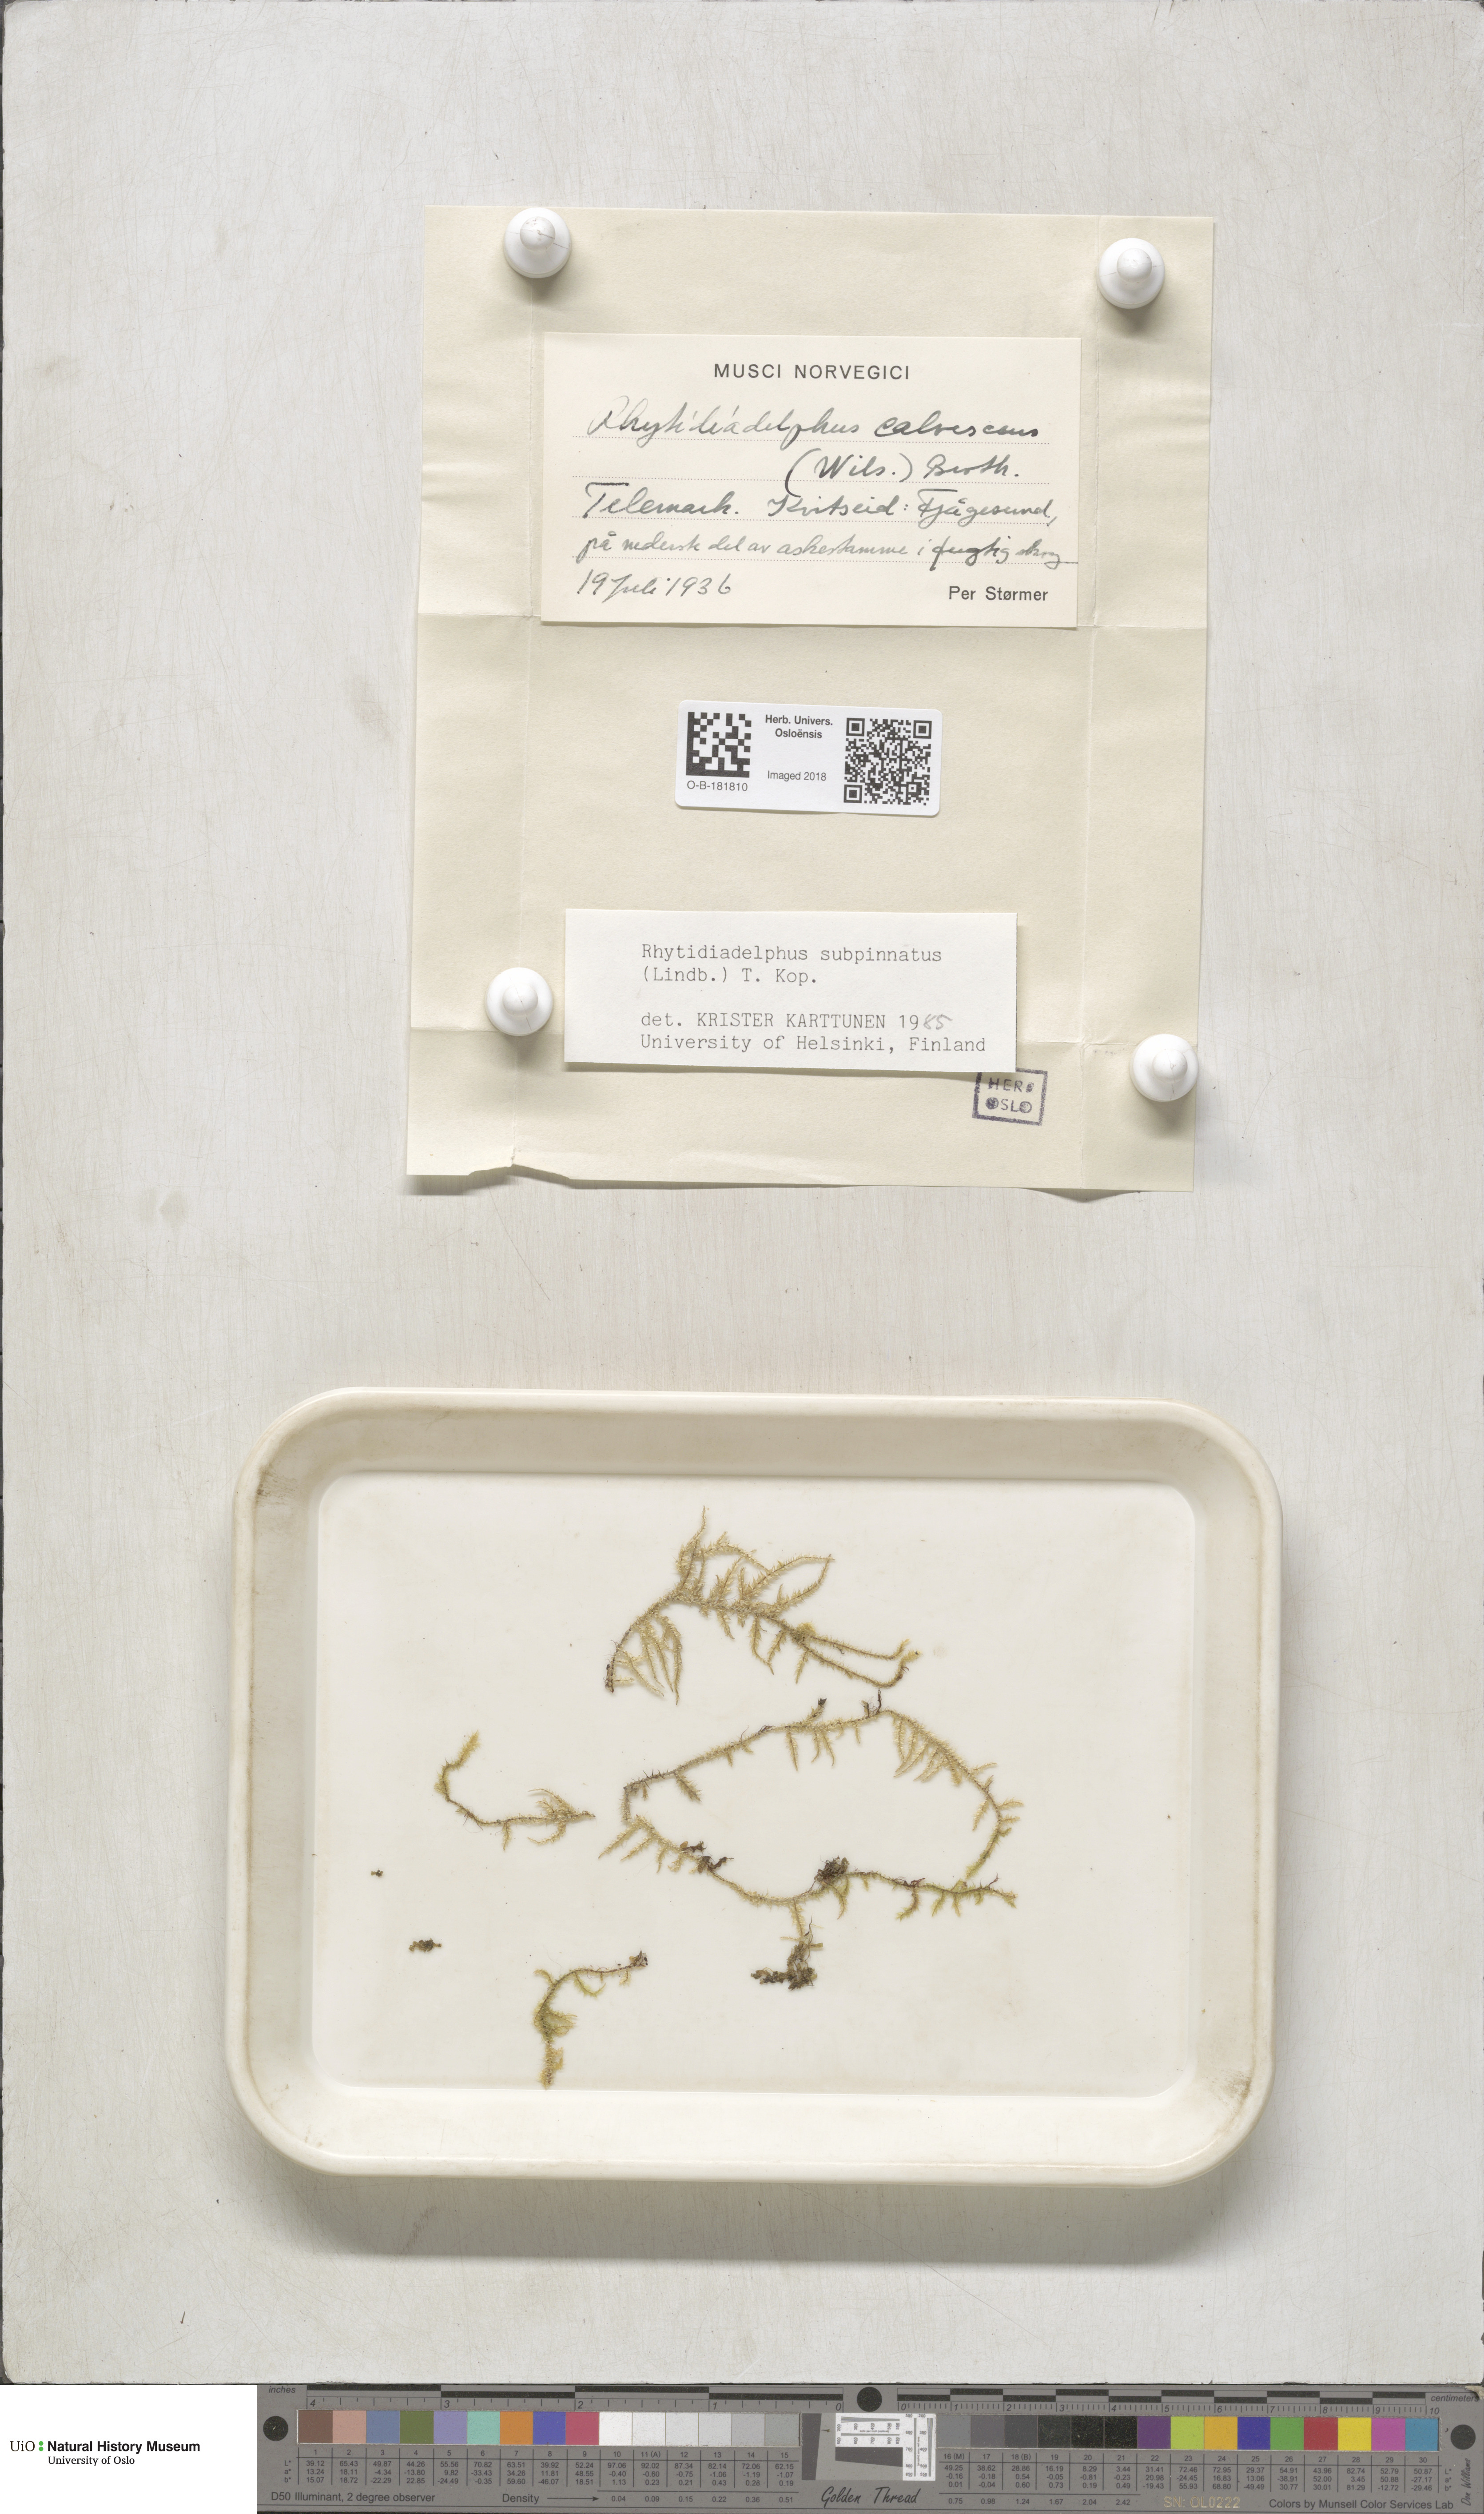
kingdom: Plantae
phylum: Bryophyta
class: Bryopsida
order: Hypnales
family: Hylocomiaceae
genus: Rhytidiadelphus
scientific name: Rhytidiadelphus subpinnatus
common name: Subpinnate gooseneck moss
